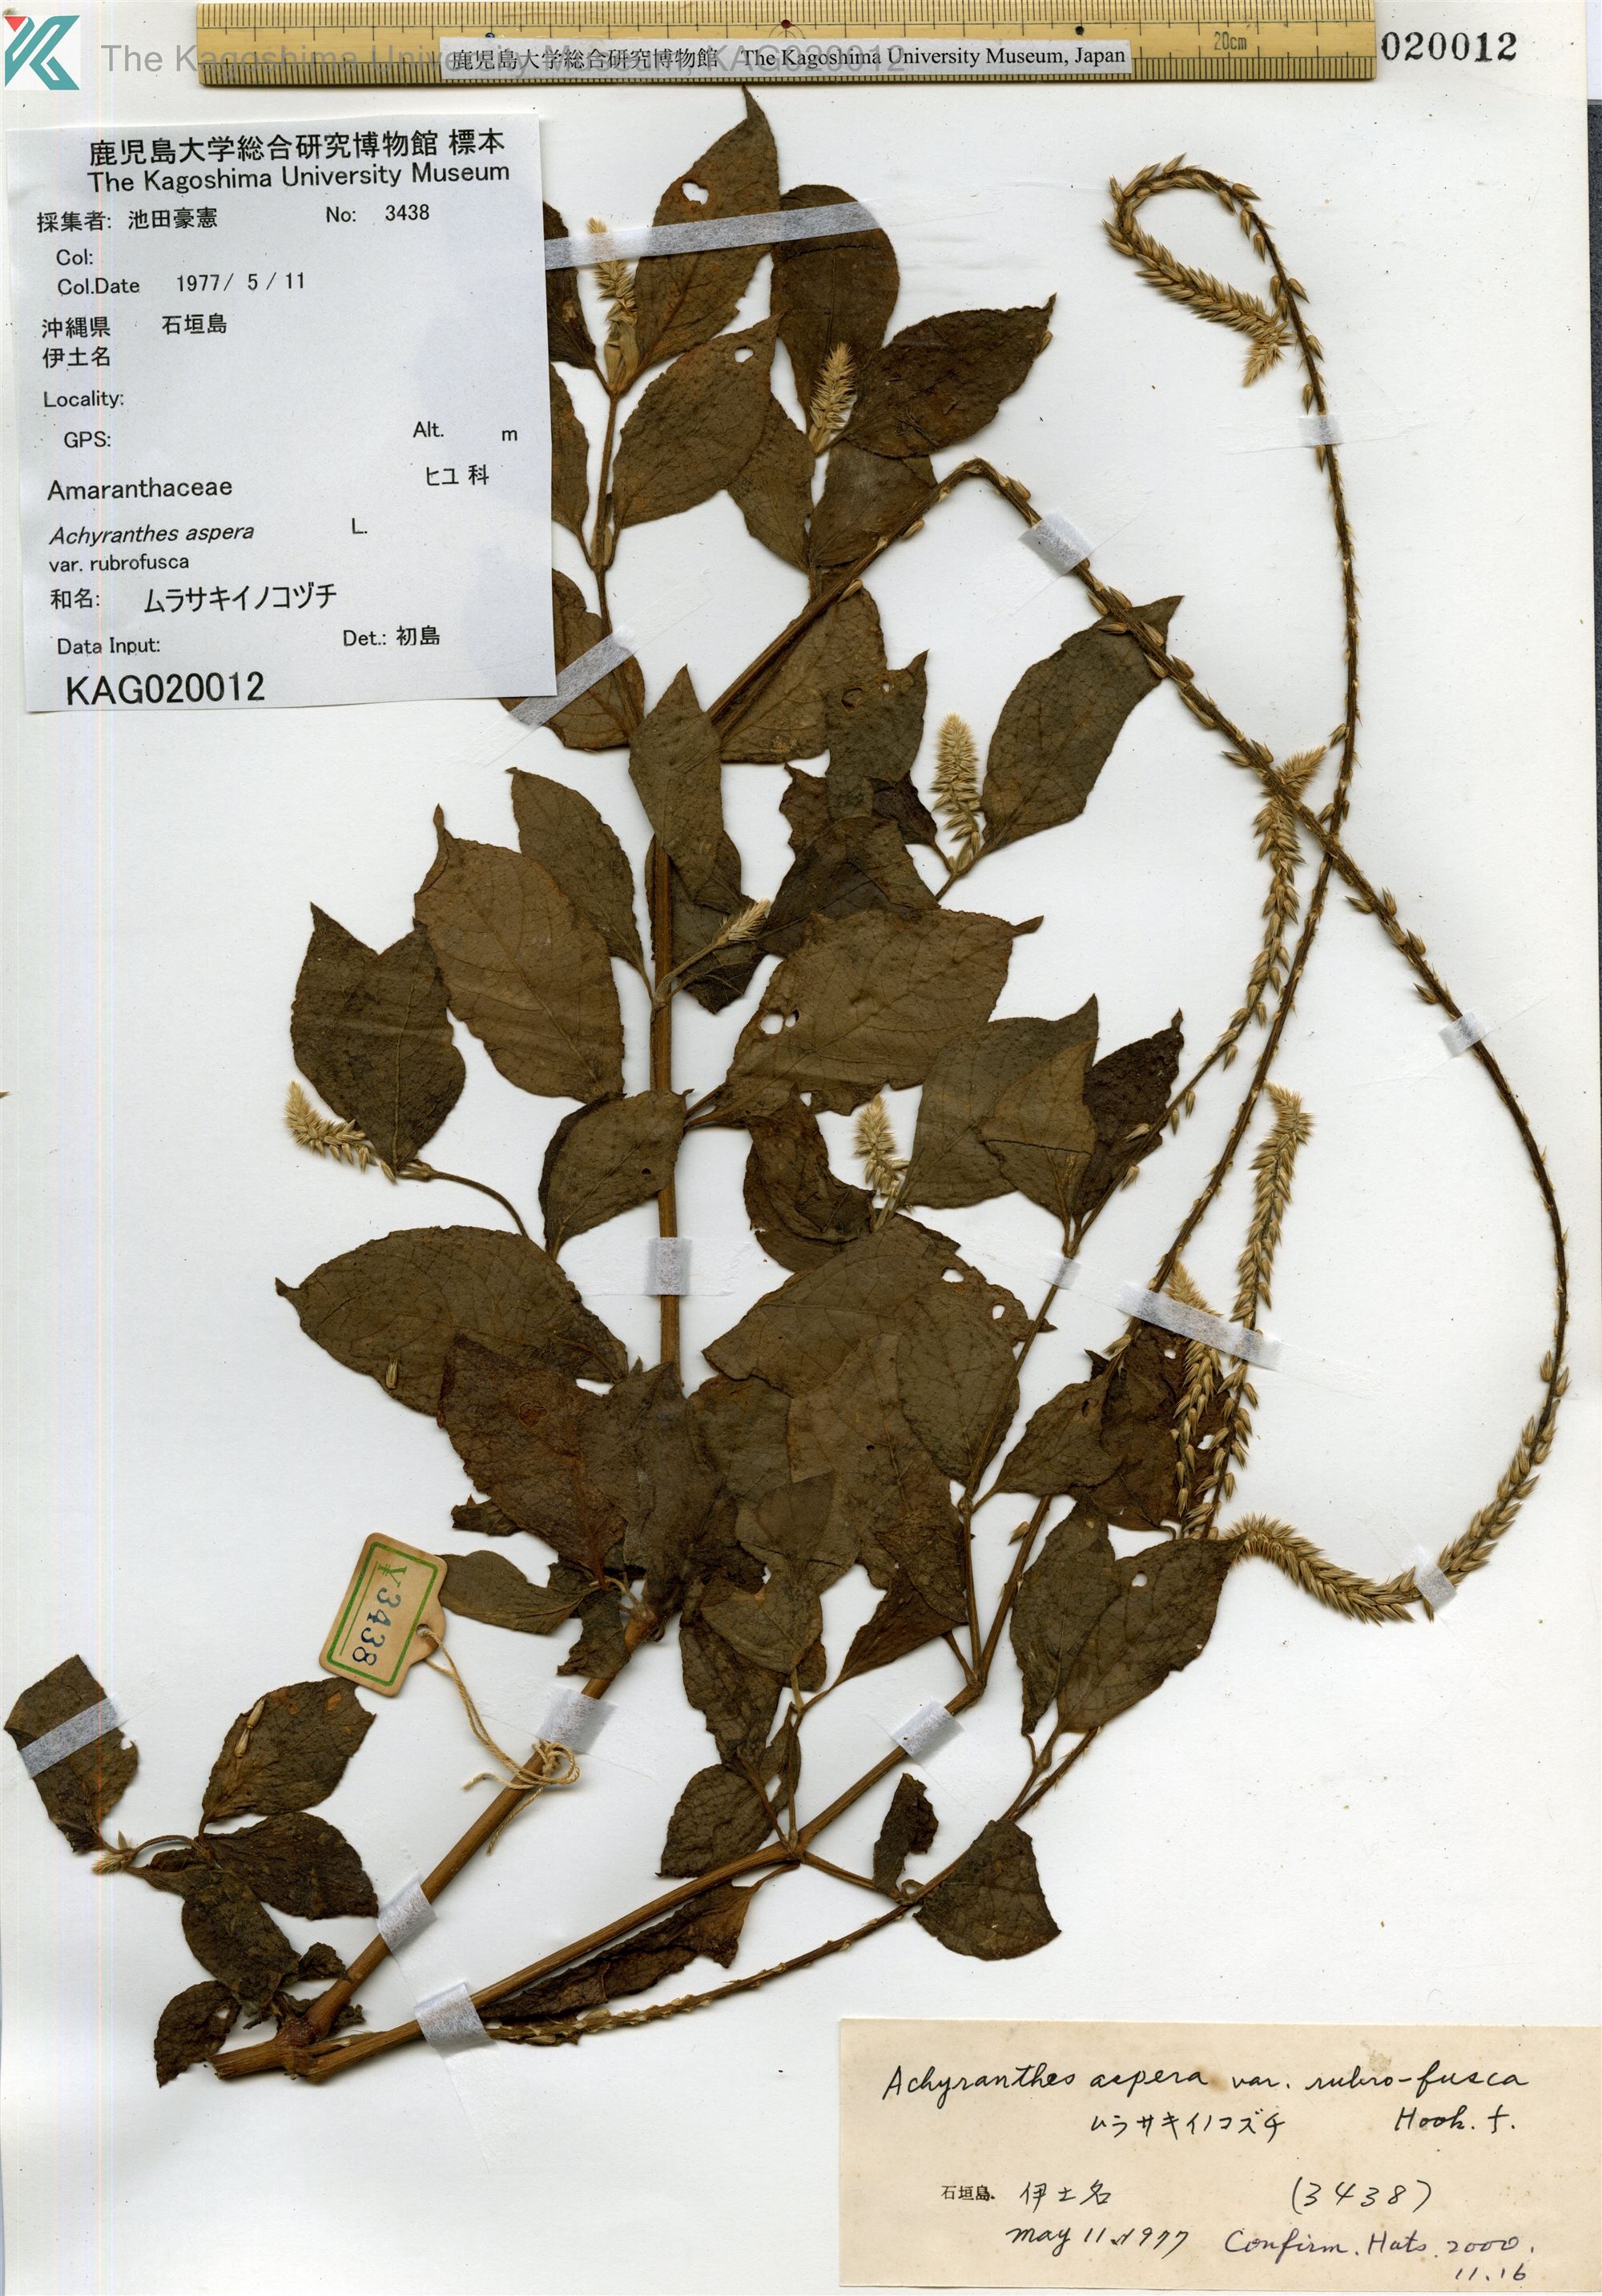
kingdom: Plantae
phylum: Tracheophyta
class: Magnoliopsida
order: Caryophyllales
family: Amaranthaceae
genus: Achyranthes
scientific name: Achyranthes aspera
